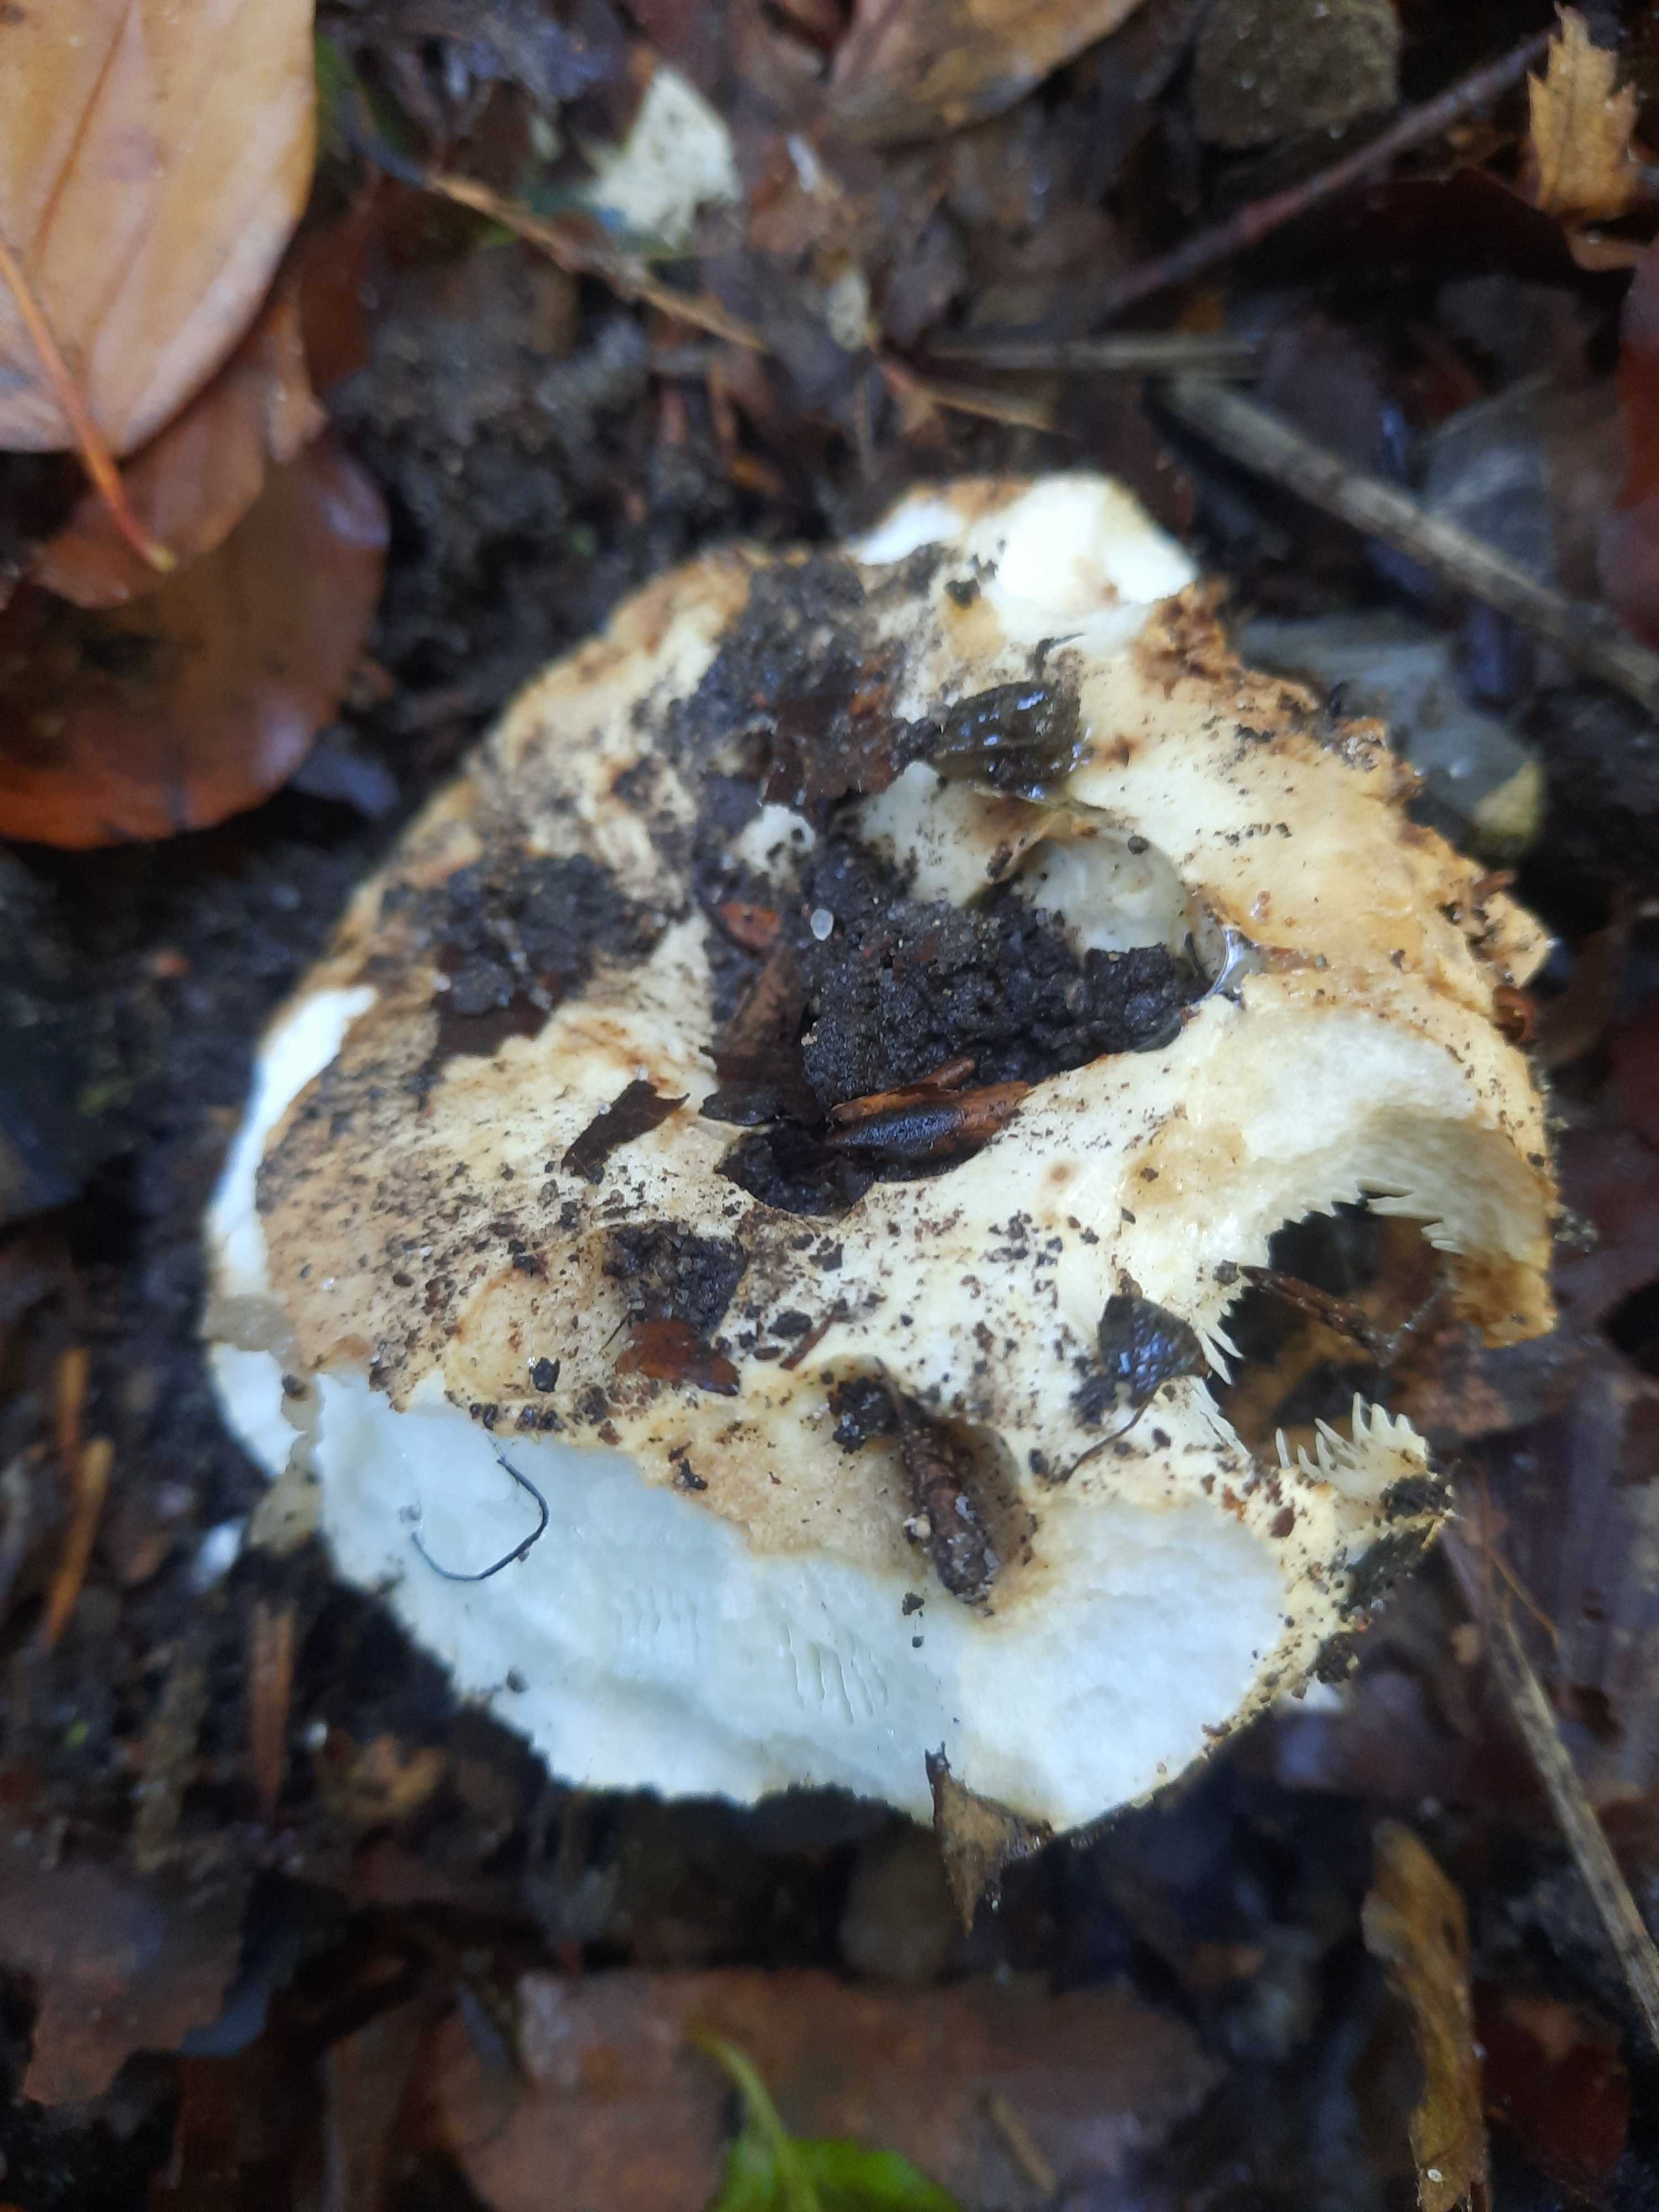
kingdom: Fungi
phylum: Basidiomycota
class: Agaricomycetes
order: Russulales
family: Russulaceae
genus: Russula
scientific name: Russula chloroides
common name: grønhalset tragt-skørhat
